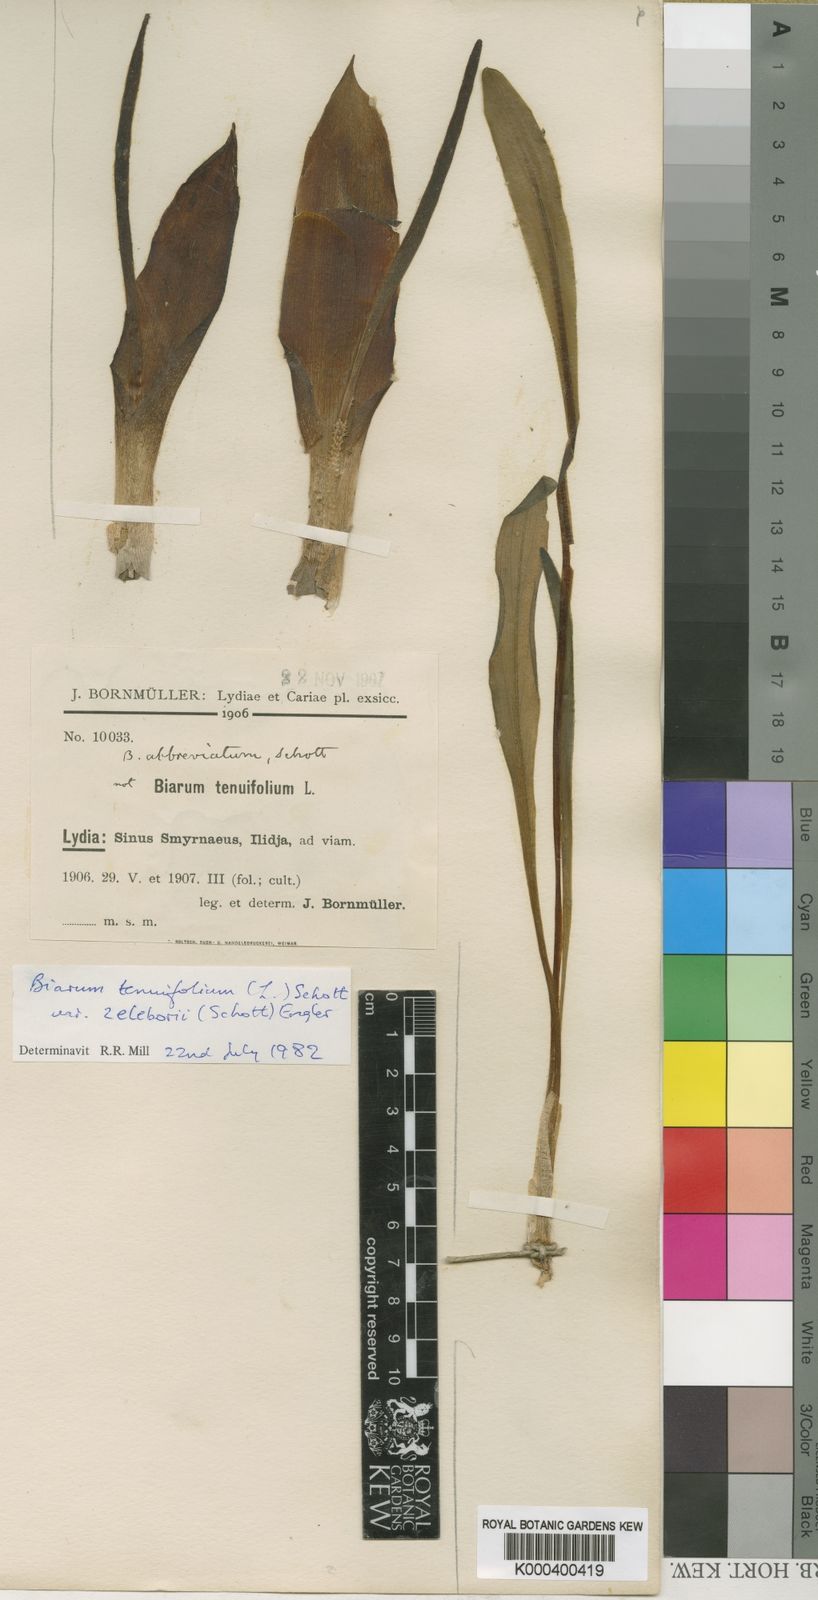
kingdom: Plantae
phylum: Tracheophyta
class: Liliopsida
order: Alismatales
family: Araceae
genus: Biarum
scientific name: Biarum tenuifolium
